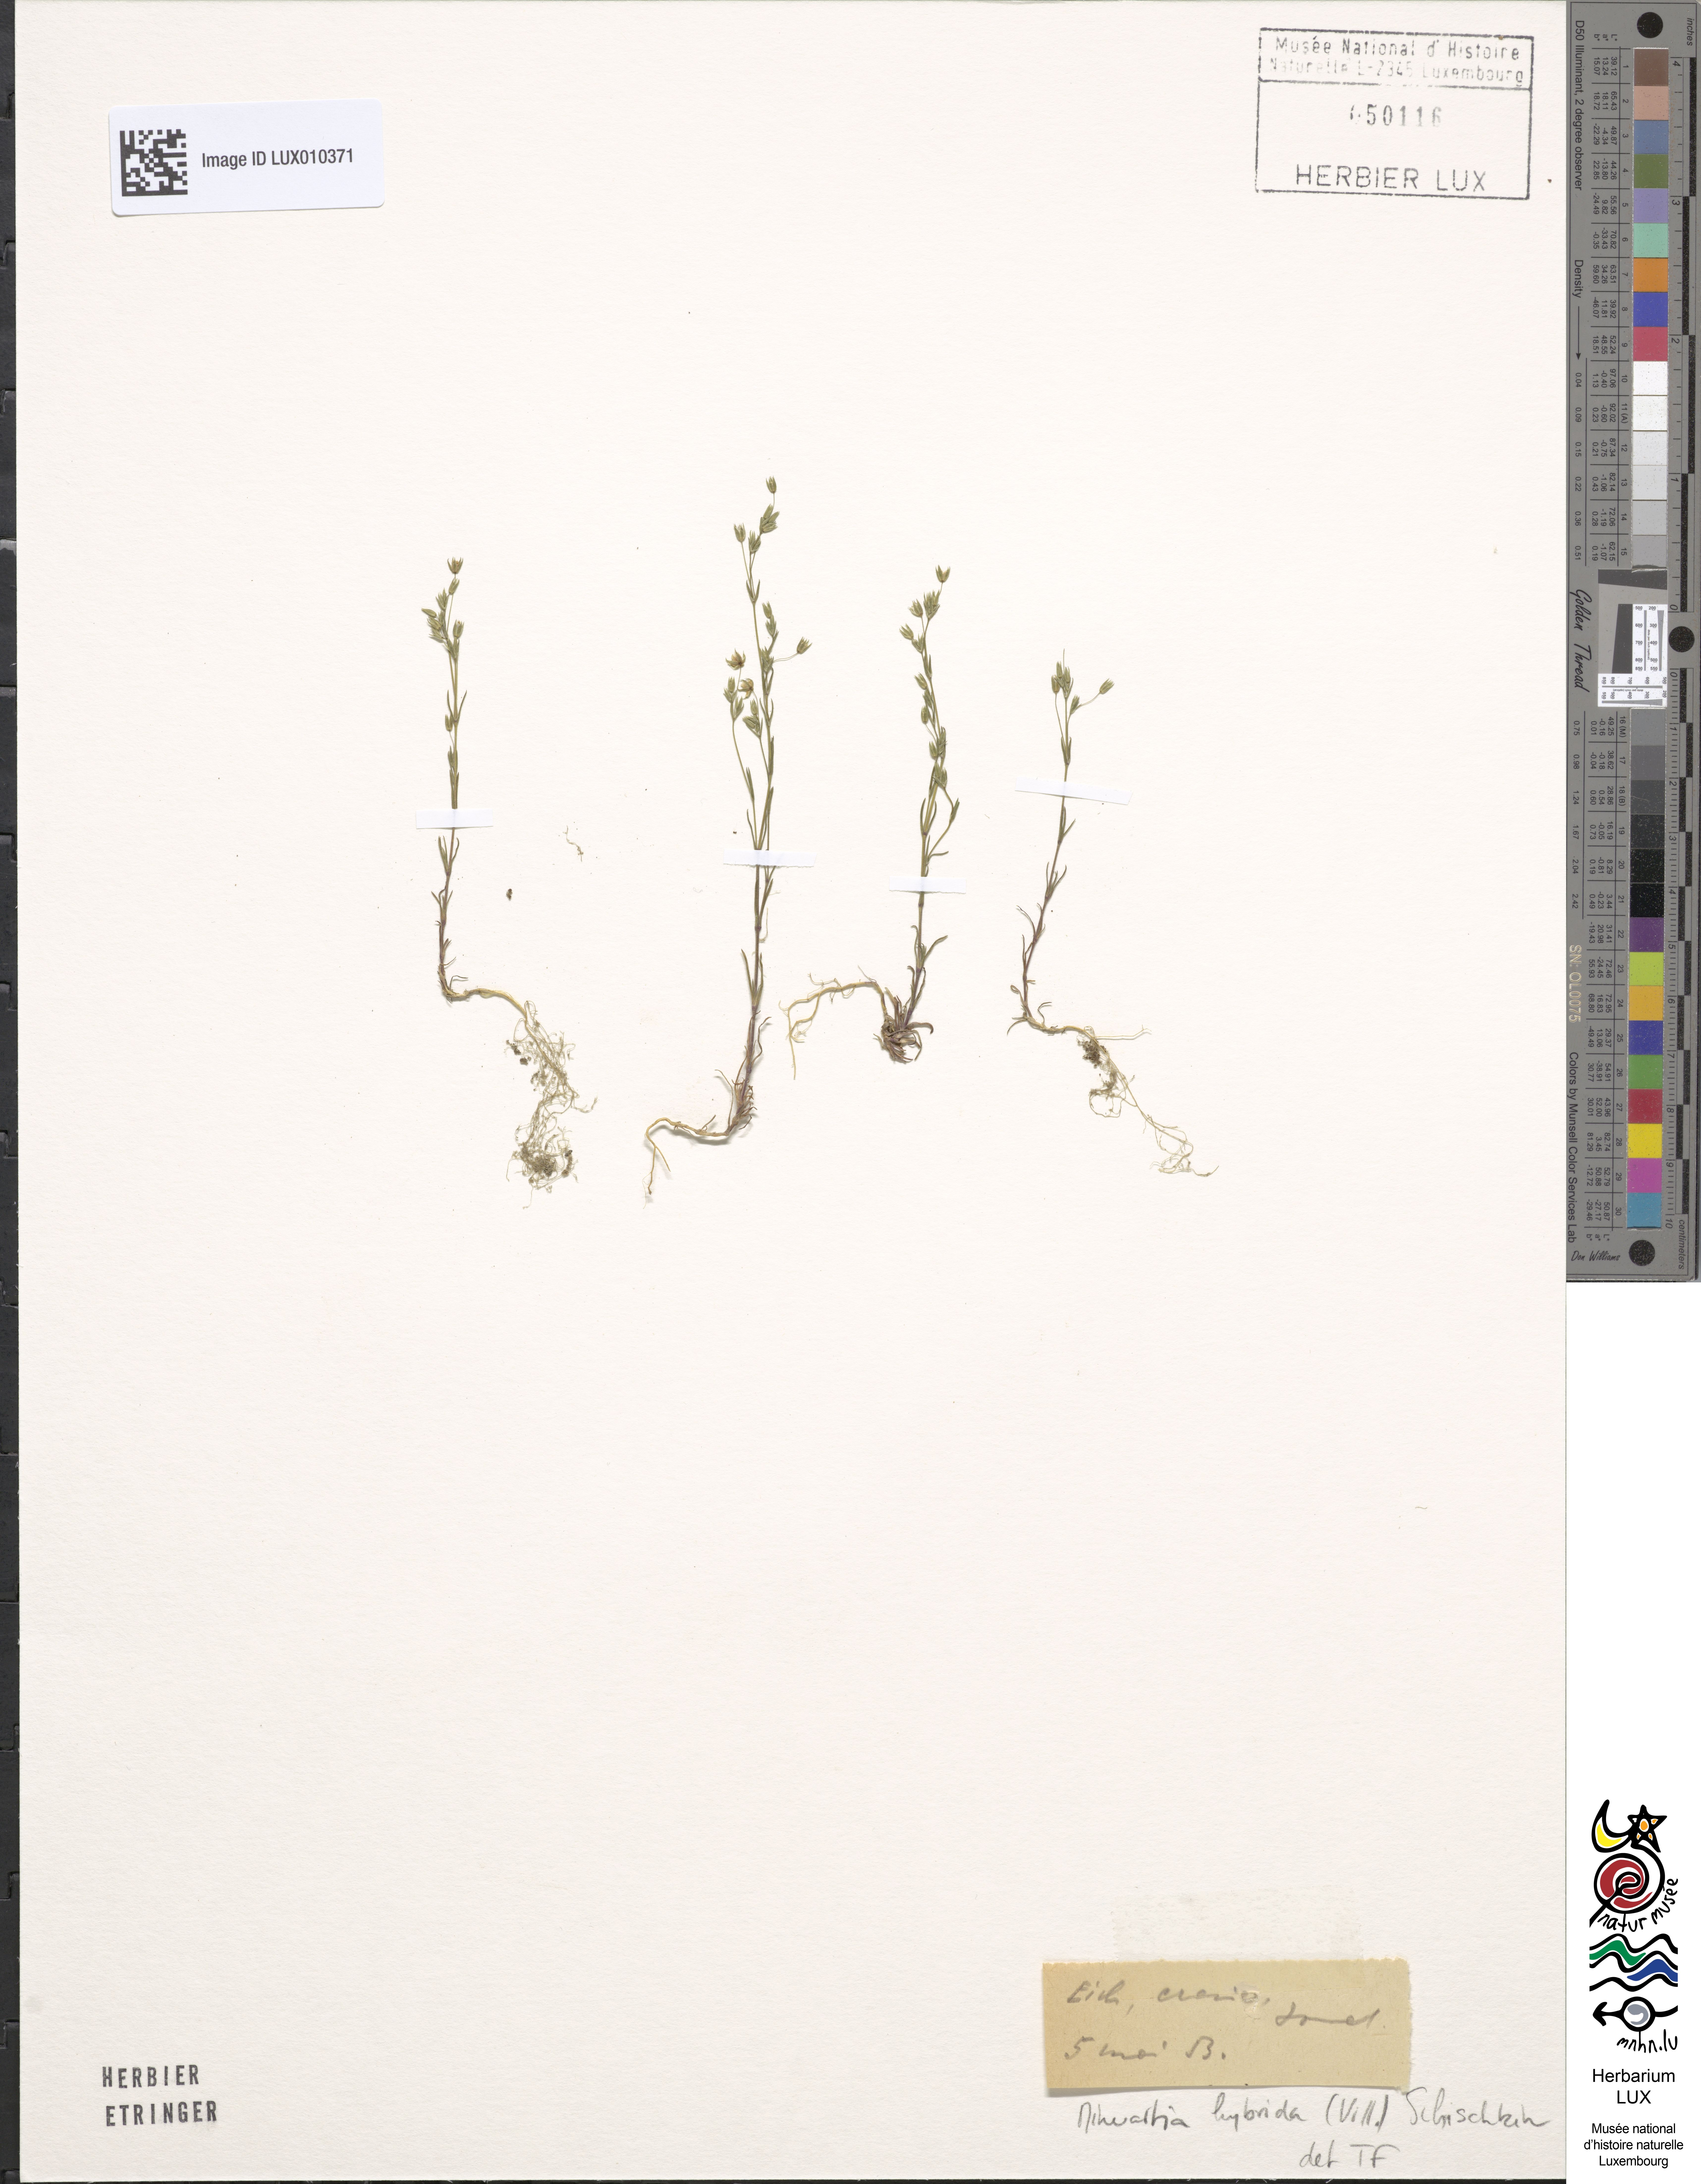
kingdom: Plantae
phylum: Tracheophyta
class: Magnoliopsida
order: Caryophyllales
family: Caryophyllaceae
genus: Sabulina
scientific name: Sabulina tenuifolia
